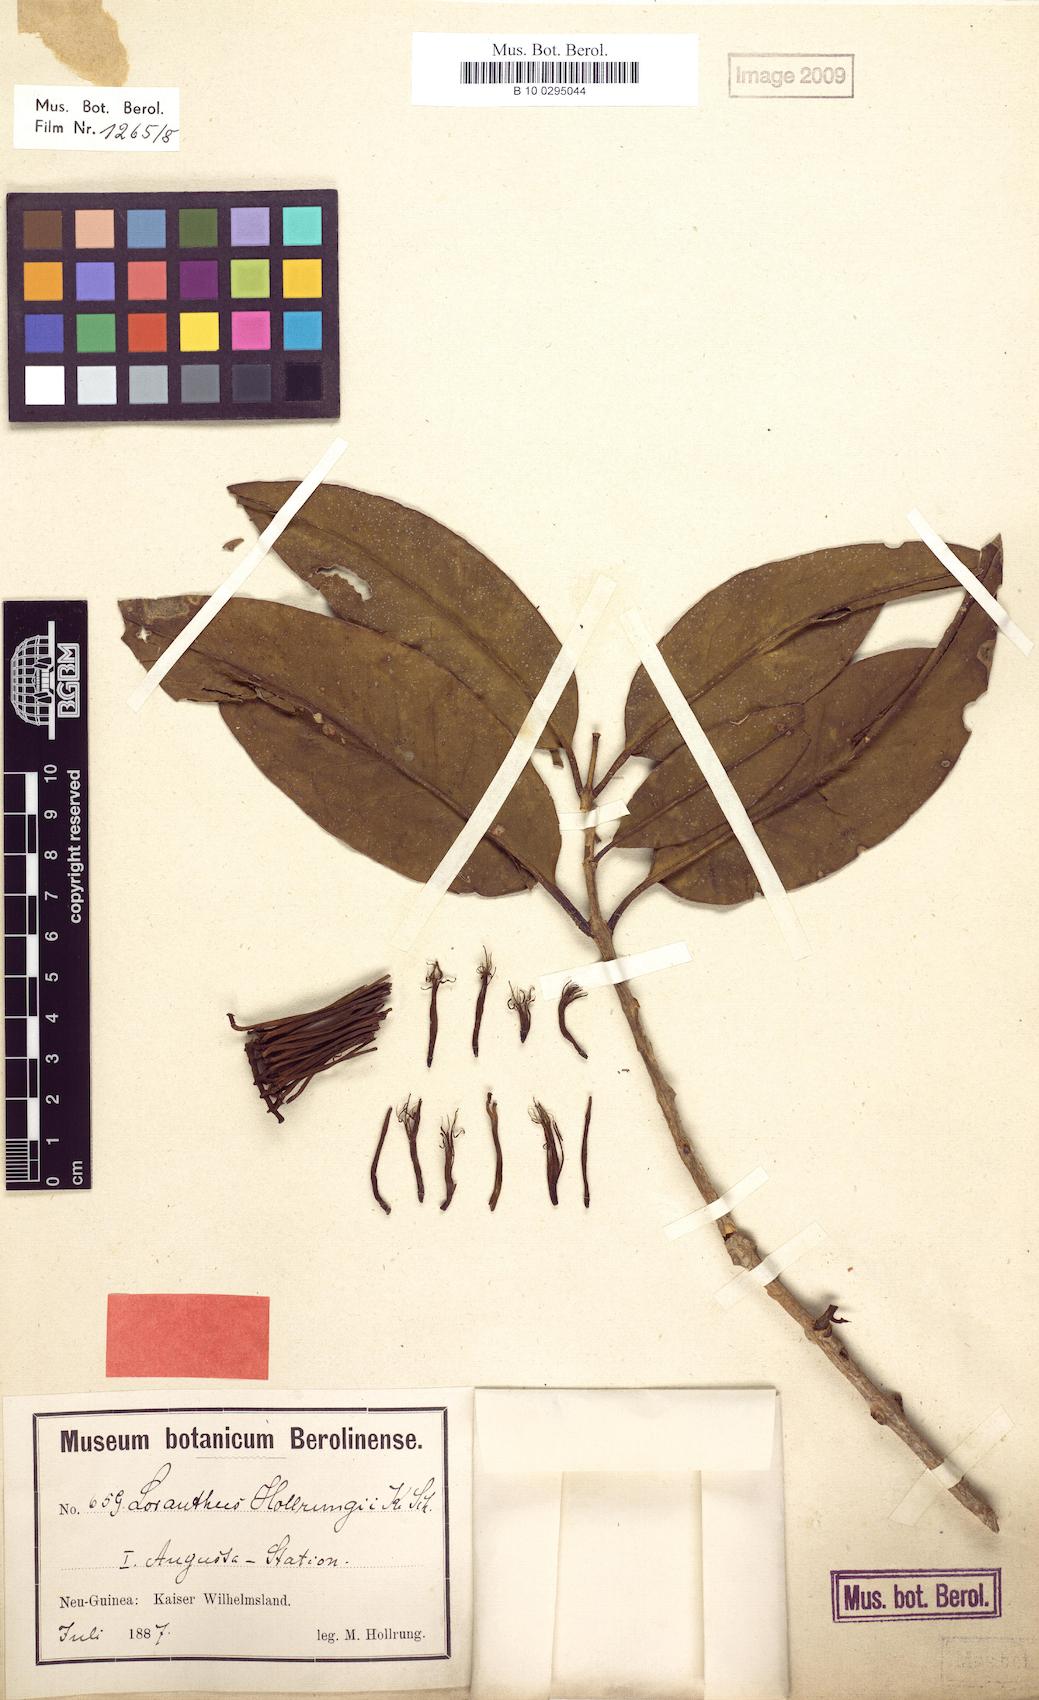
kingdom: Plantae
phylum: Tracheophyta
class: Magnoliopsida
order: Santalales
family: Loranthaceae
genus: Decaisnina
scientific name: Decaisnina hollrungii
